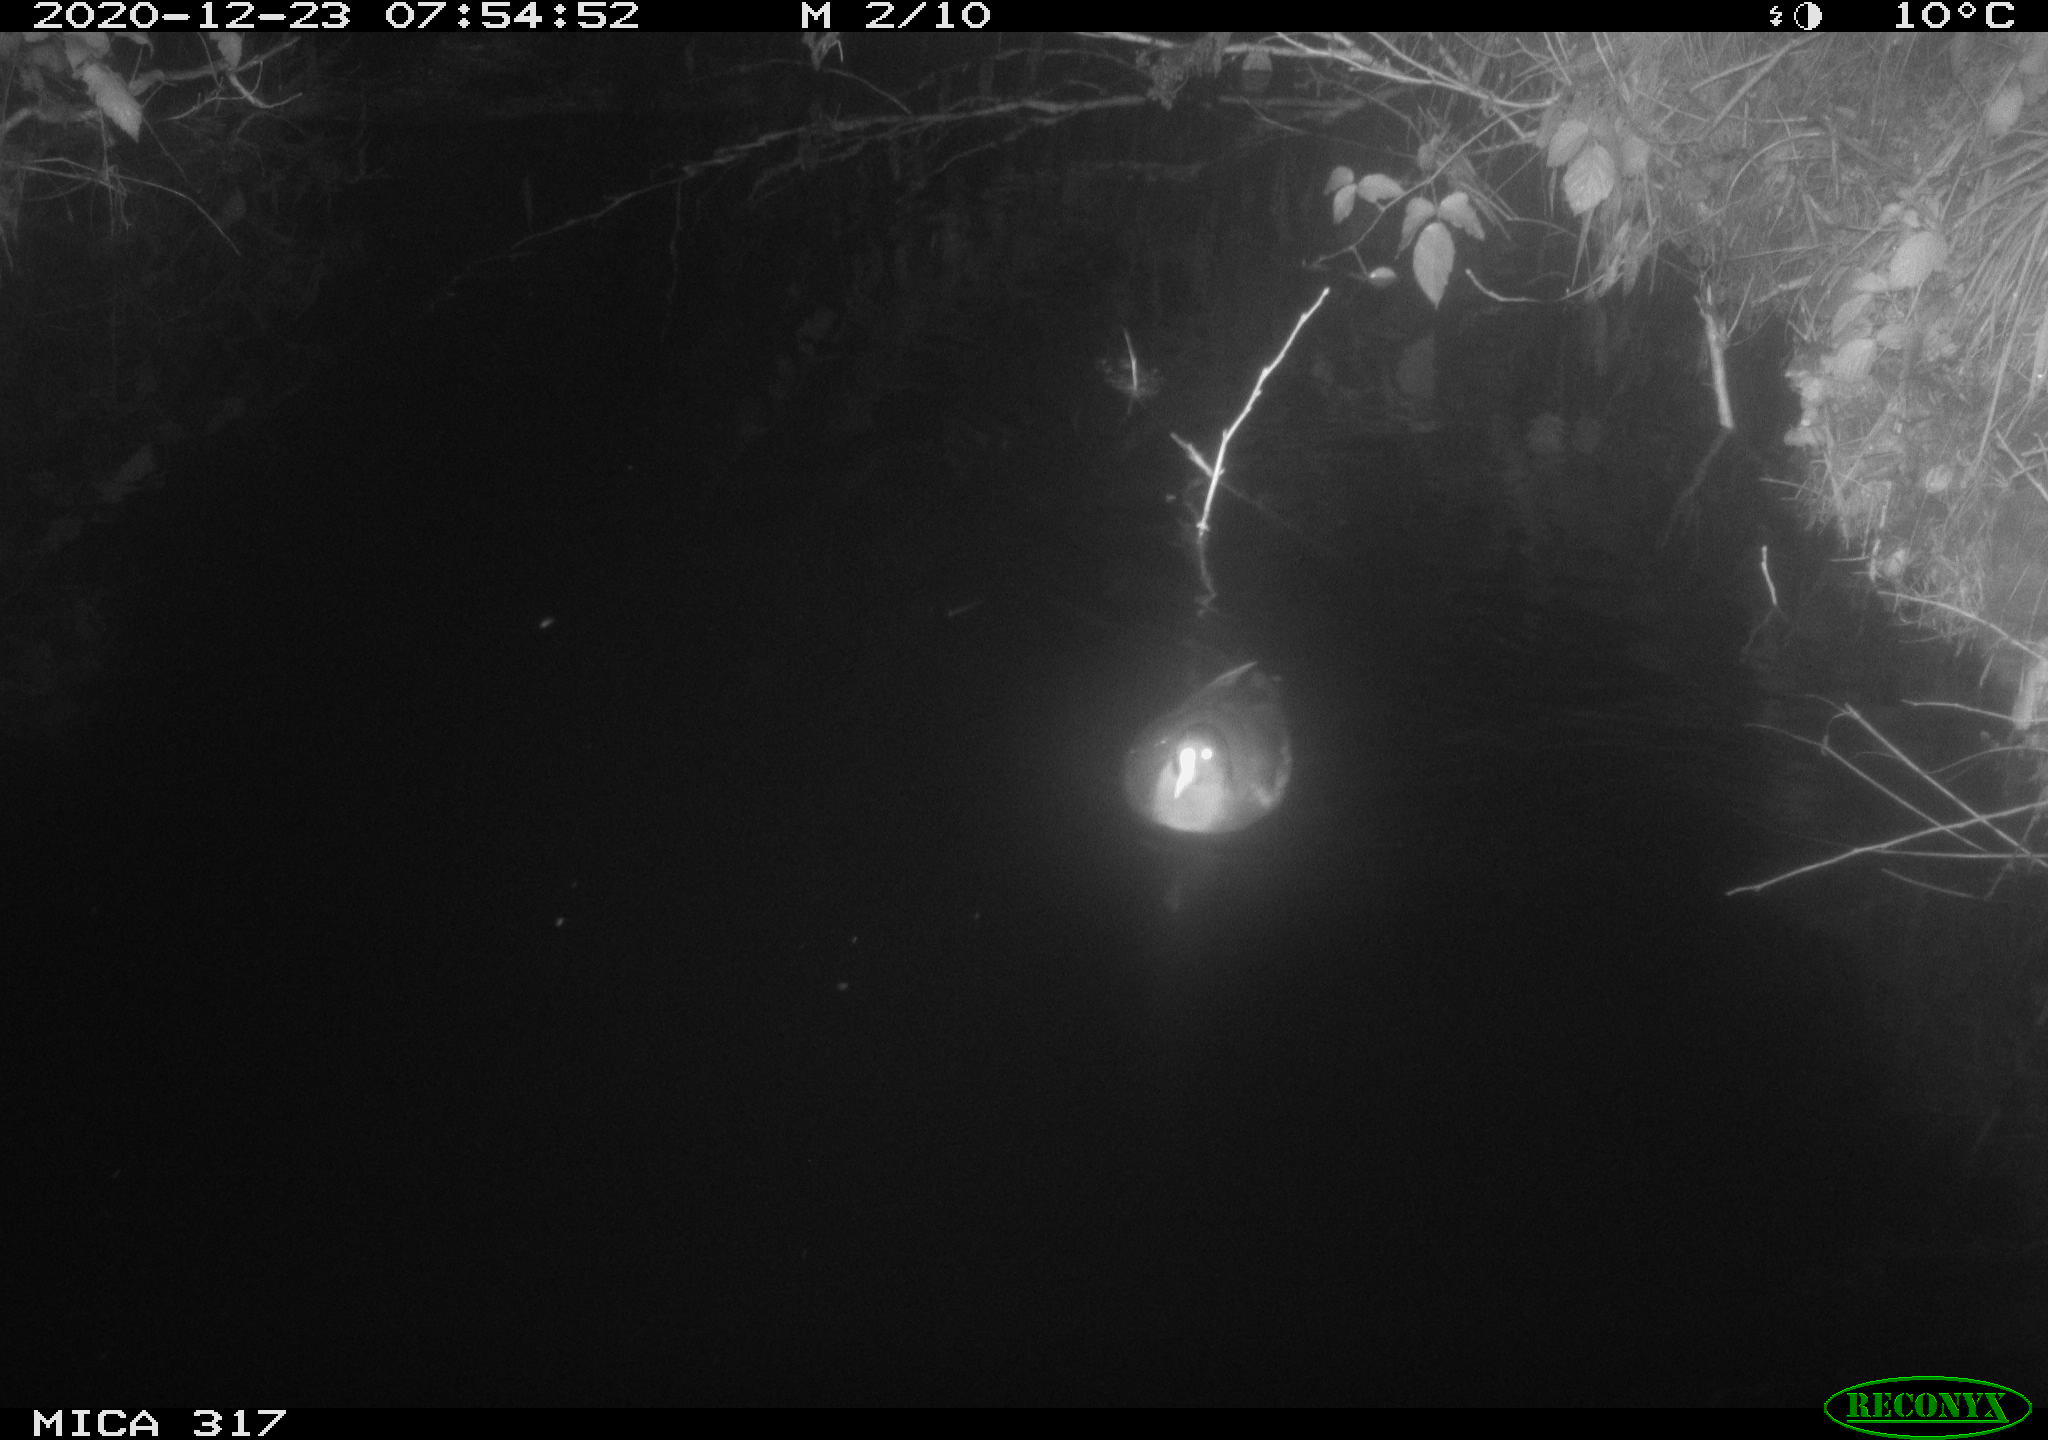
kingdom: Animalia
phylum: Chordata
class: Aves
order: Gruiformes
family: Rallidae
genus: Gallinula
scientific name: Gallinula chloropus
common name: Common moorhen
